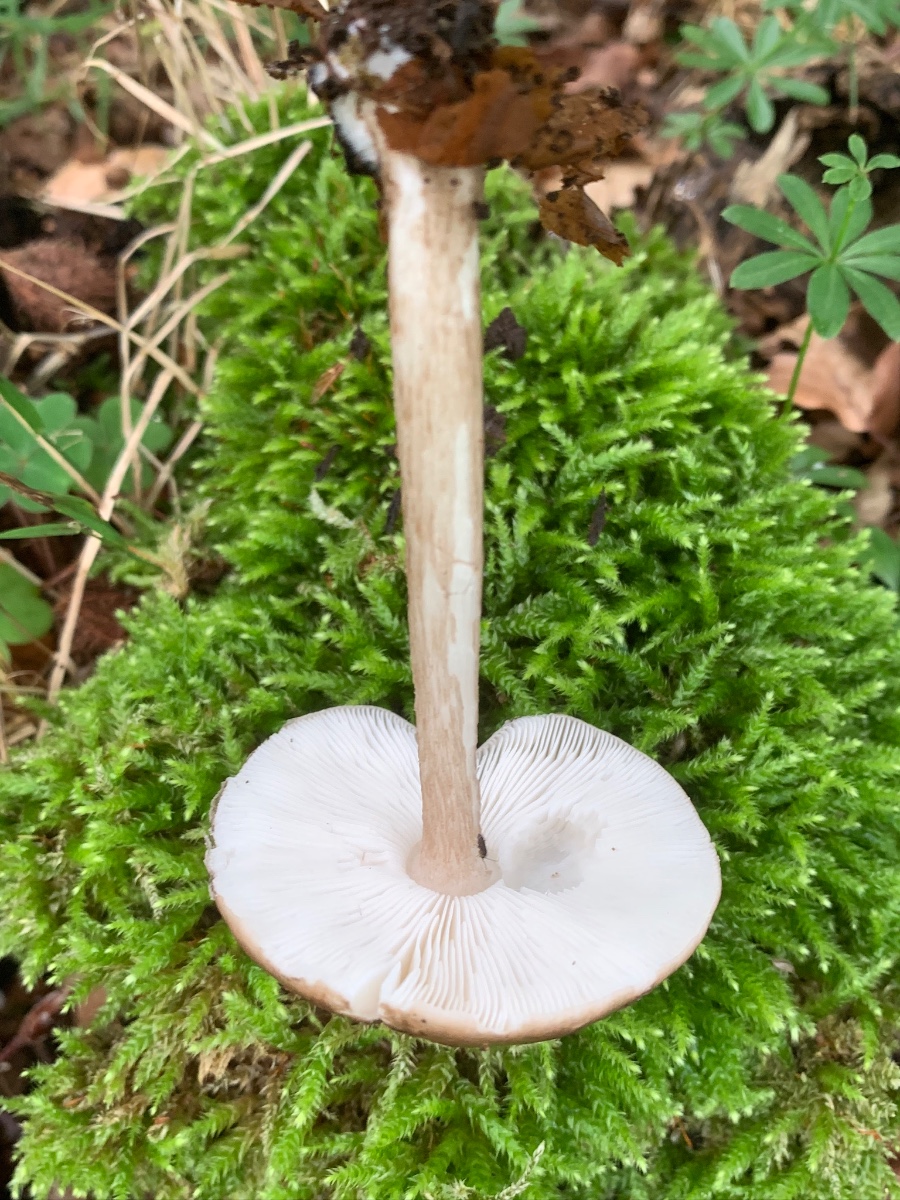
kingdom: Fungi
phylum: Basidiomycota
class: Agaricomycetes
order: Agaricales
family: Pluteaceae
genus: Pluteus
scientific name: Pluteus cervinus
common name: sodfarvet skærmhat
